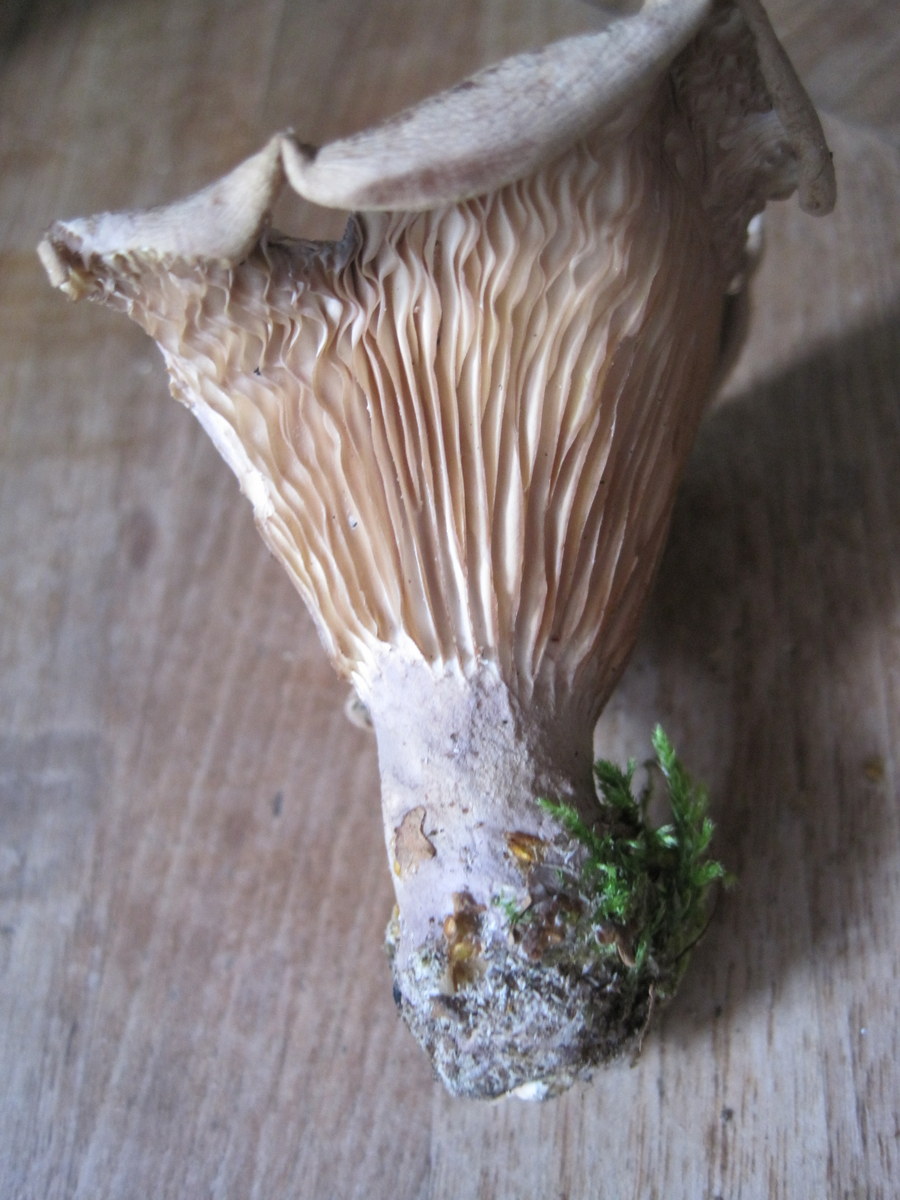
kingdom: Fungi
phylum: Basidiomycota
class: Agaricomycetes
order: Polyporales
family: Panaceae
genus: Panus
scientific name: Panus conchatus
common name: filtstokket læderhat
